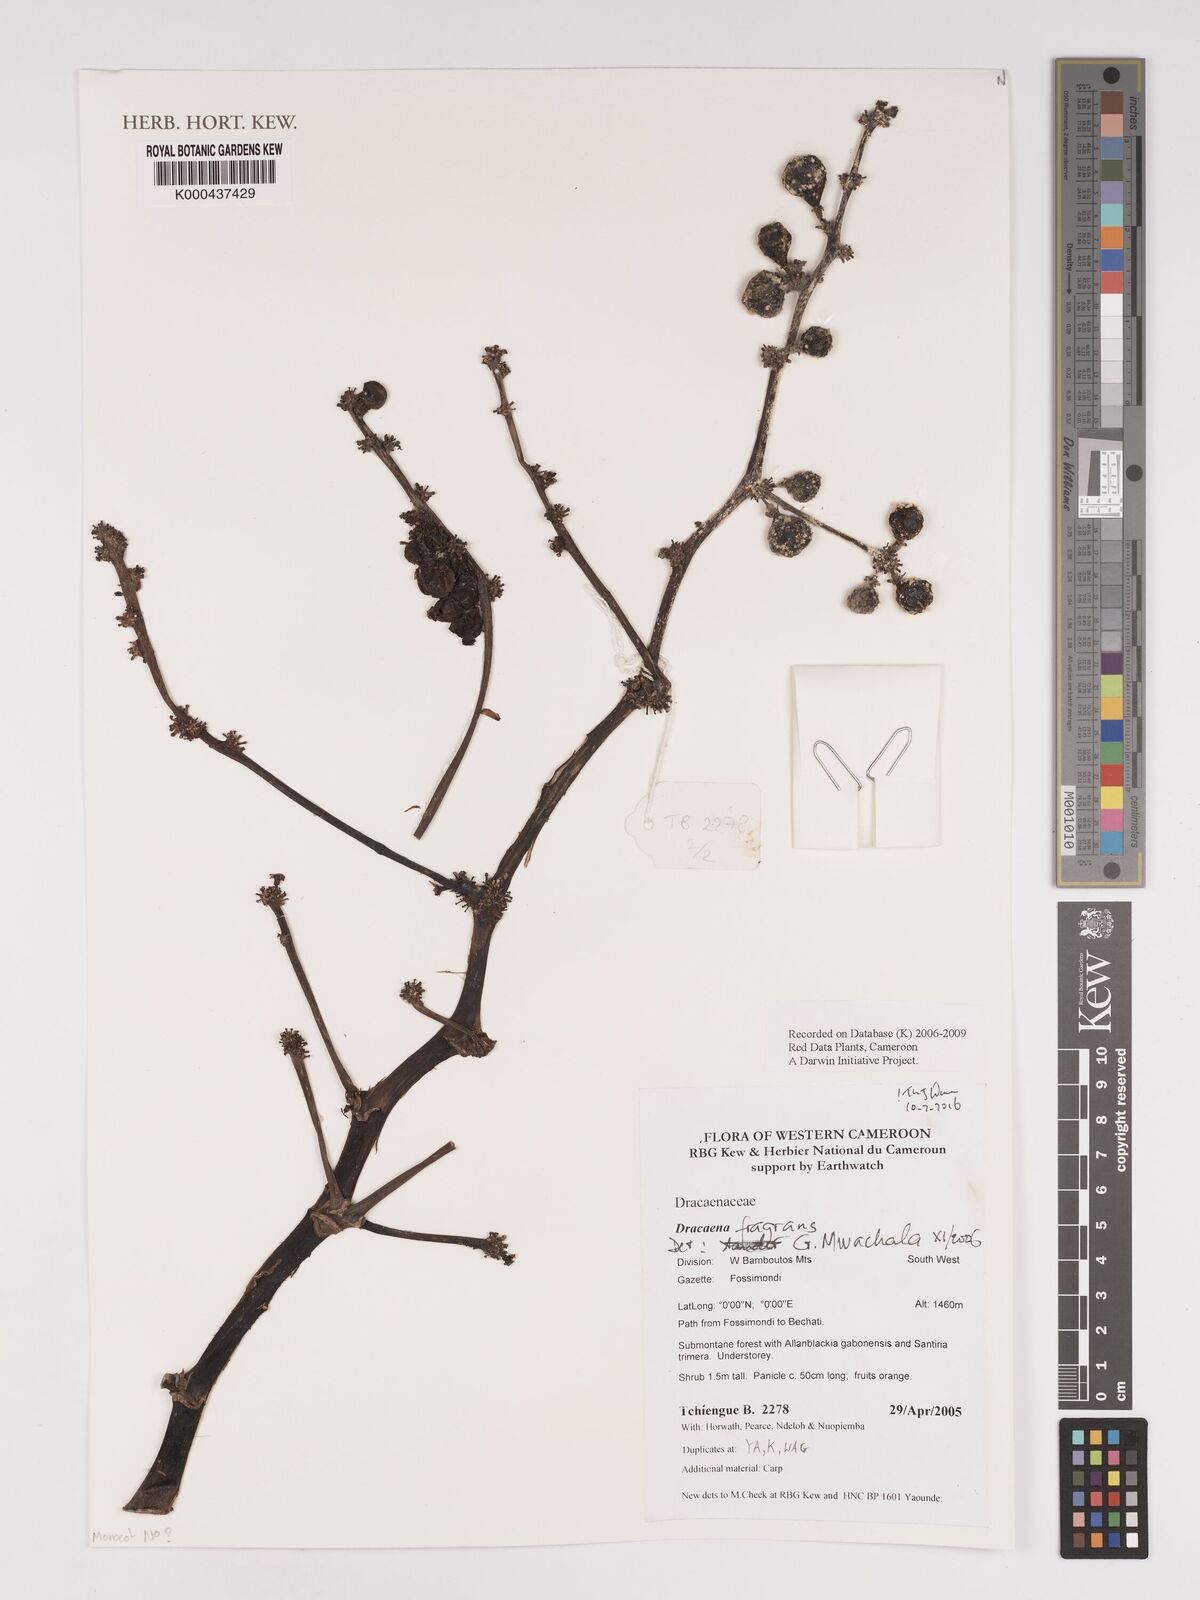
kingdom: Plantae
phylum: Tracheophyta
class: Liliopsida
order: Asparagales
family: Asparagaceae
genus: Dracaena
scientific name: Dracaena fragrans
